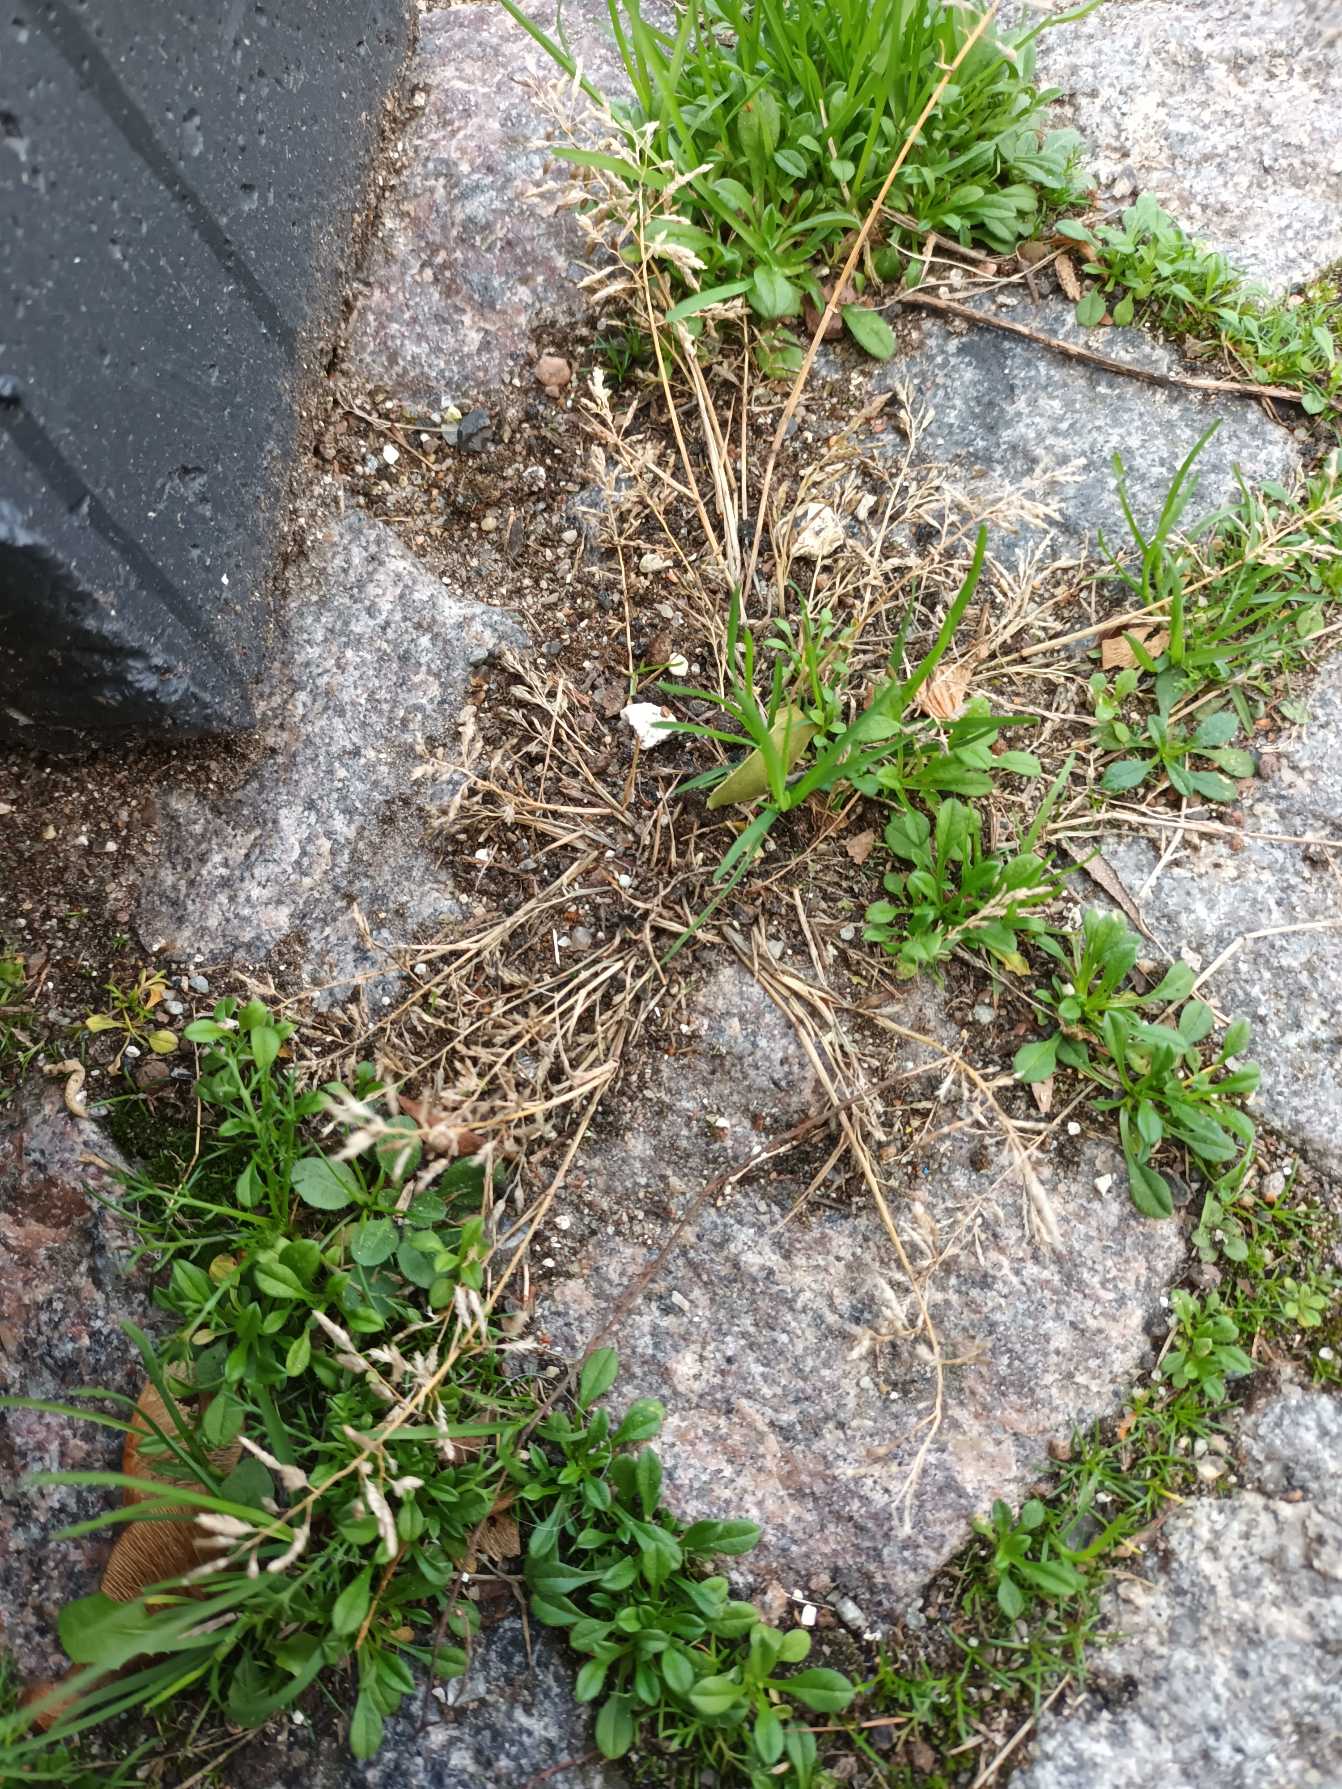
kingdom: Plantae
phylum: Tracheophyta
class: Liliopsida
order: Poales
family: Poaceae
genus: Eragrostis
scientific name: Eragrostis minor
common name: Liden kærlighedsgræs
